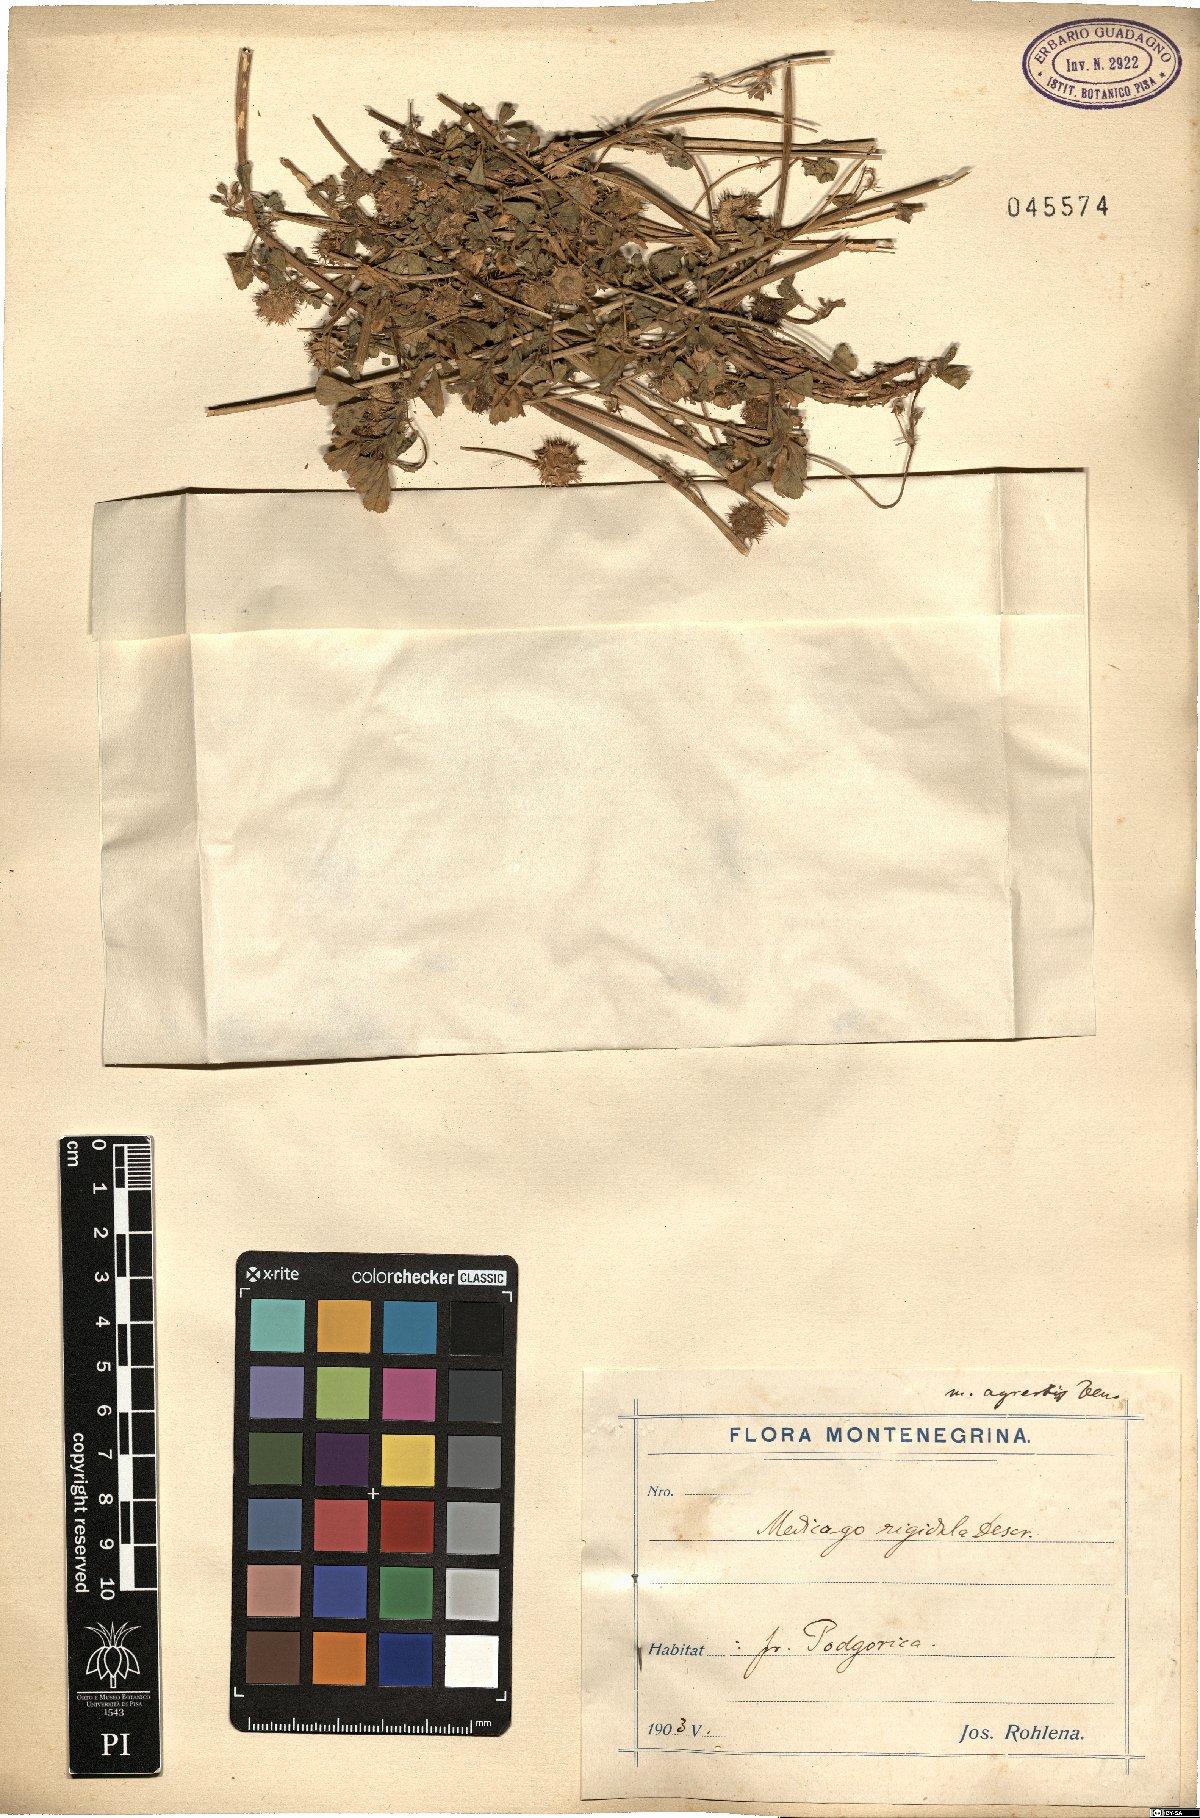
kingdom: Plantae
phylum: Tracheophyta
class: Magnoliopsida
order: Fabales
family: Fabaceae
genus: Medicago
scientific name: Medicago rigidula
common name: Tifton medic
